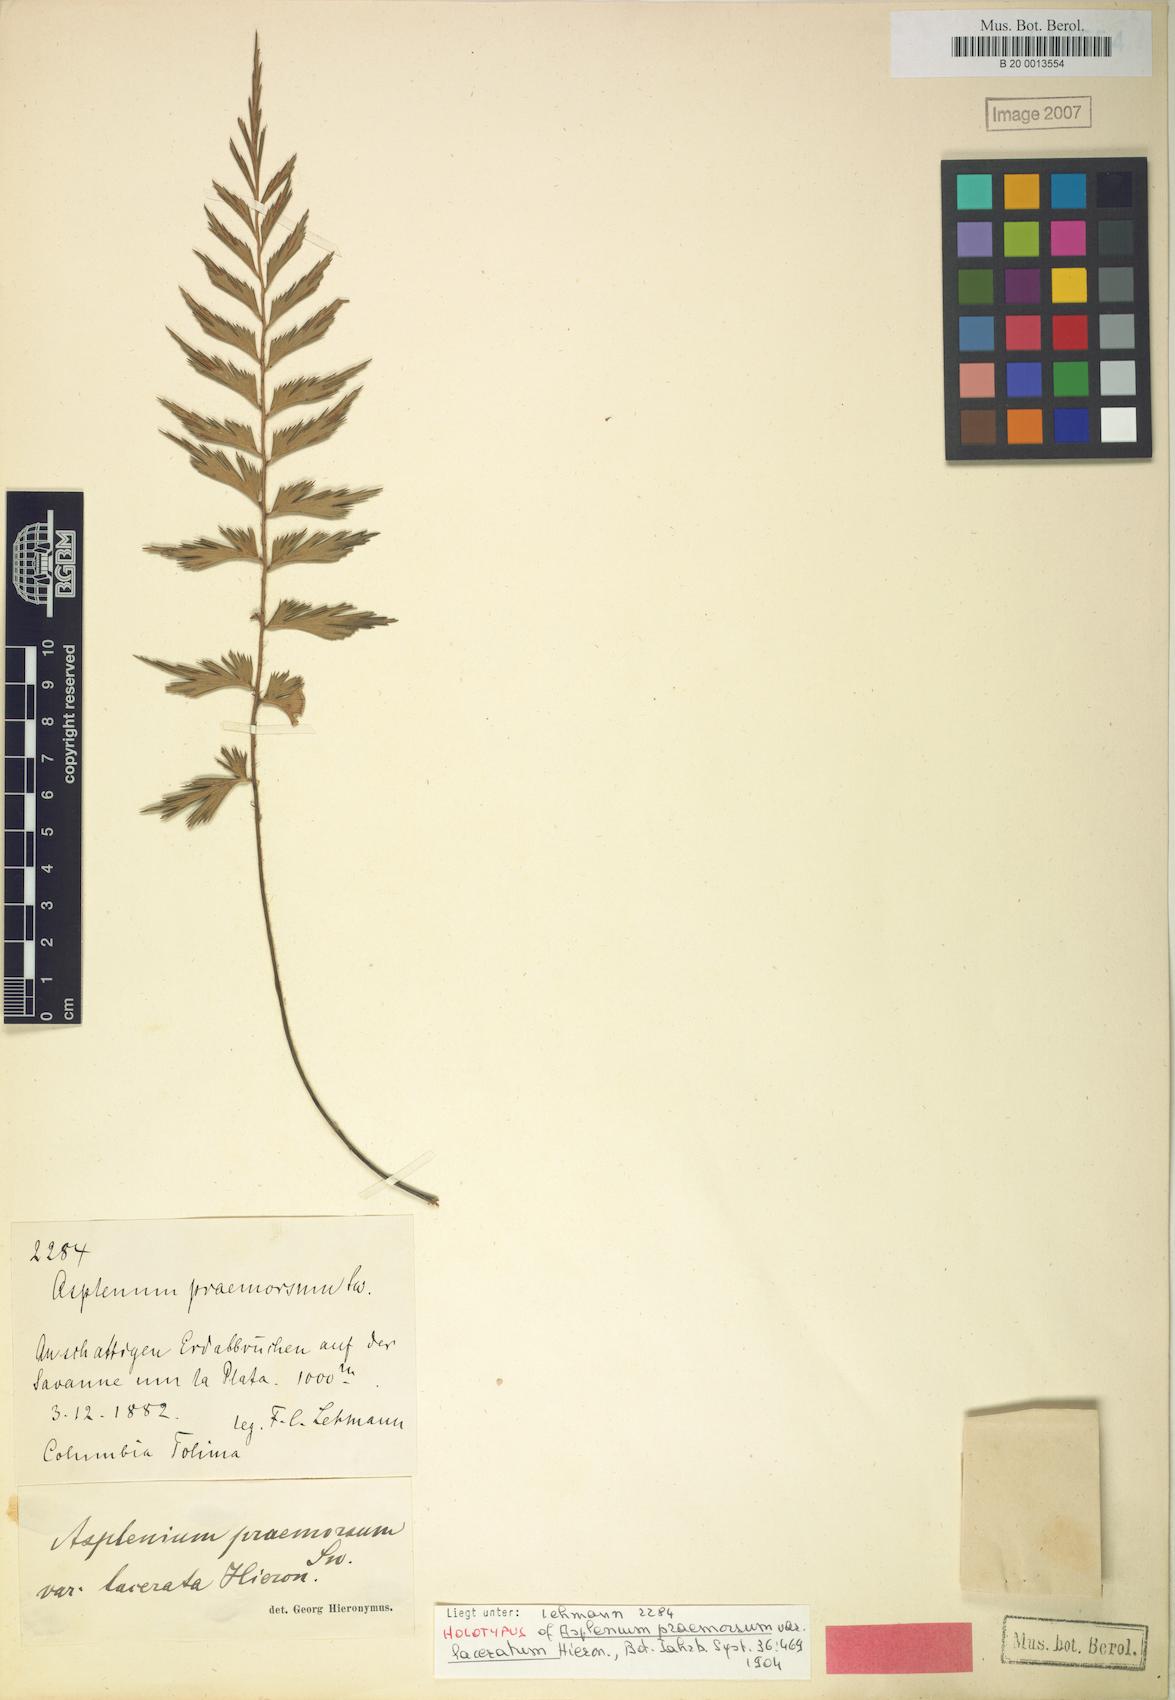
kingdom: Plantae
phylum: Tracheophyta
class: Polypodiopsida
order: Polypodiales
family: Aspleniaceae
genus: Asplenium
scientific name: Asplenium praemorsum
